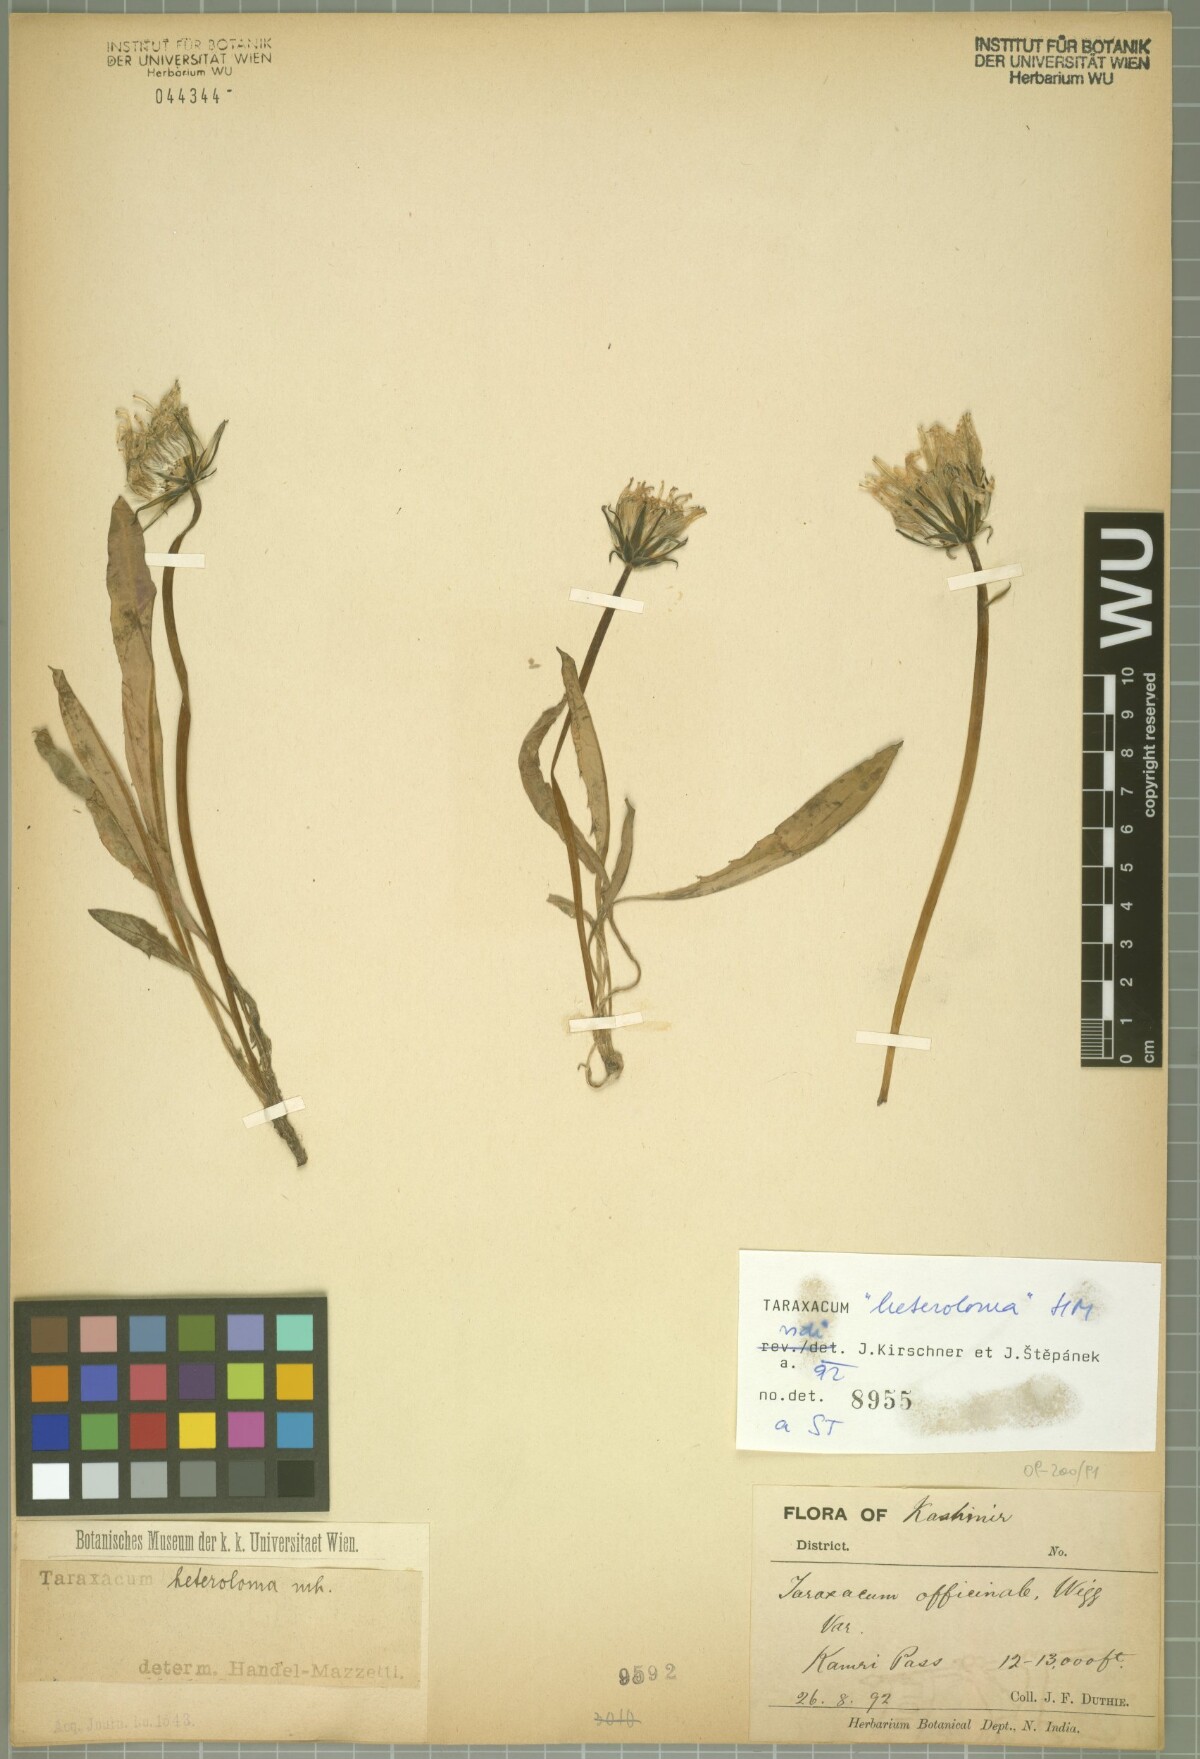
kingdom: Plantae
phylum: Tracheophyta
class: Magnoliopsida
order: Asterales
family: Asteraceae
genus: Taraxacum
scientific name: Taraxacum heteroloma
